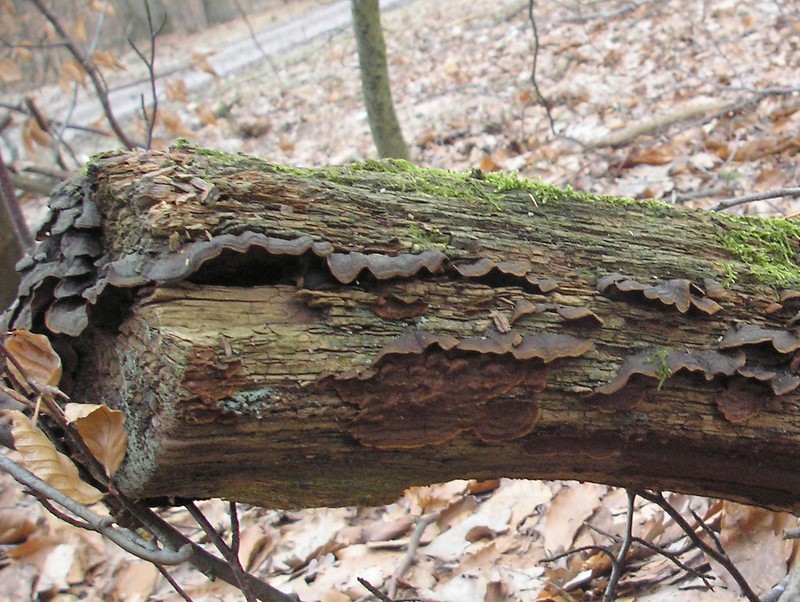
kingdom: Fungi
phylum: Basidiomycota
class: Agaricomycetes
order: Hymenochaetales
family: Hymenochaetaceae
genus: Hymenochaete
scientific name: Hymenochaete rubiginosa
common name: stiv ruslædersvamp
